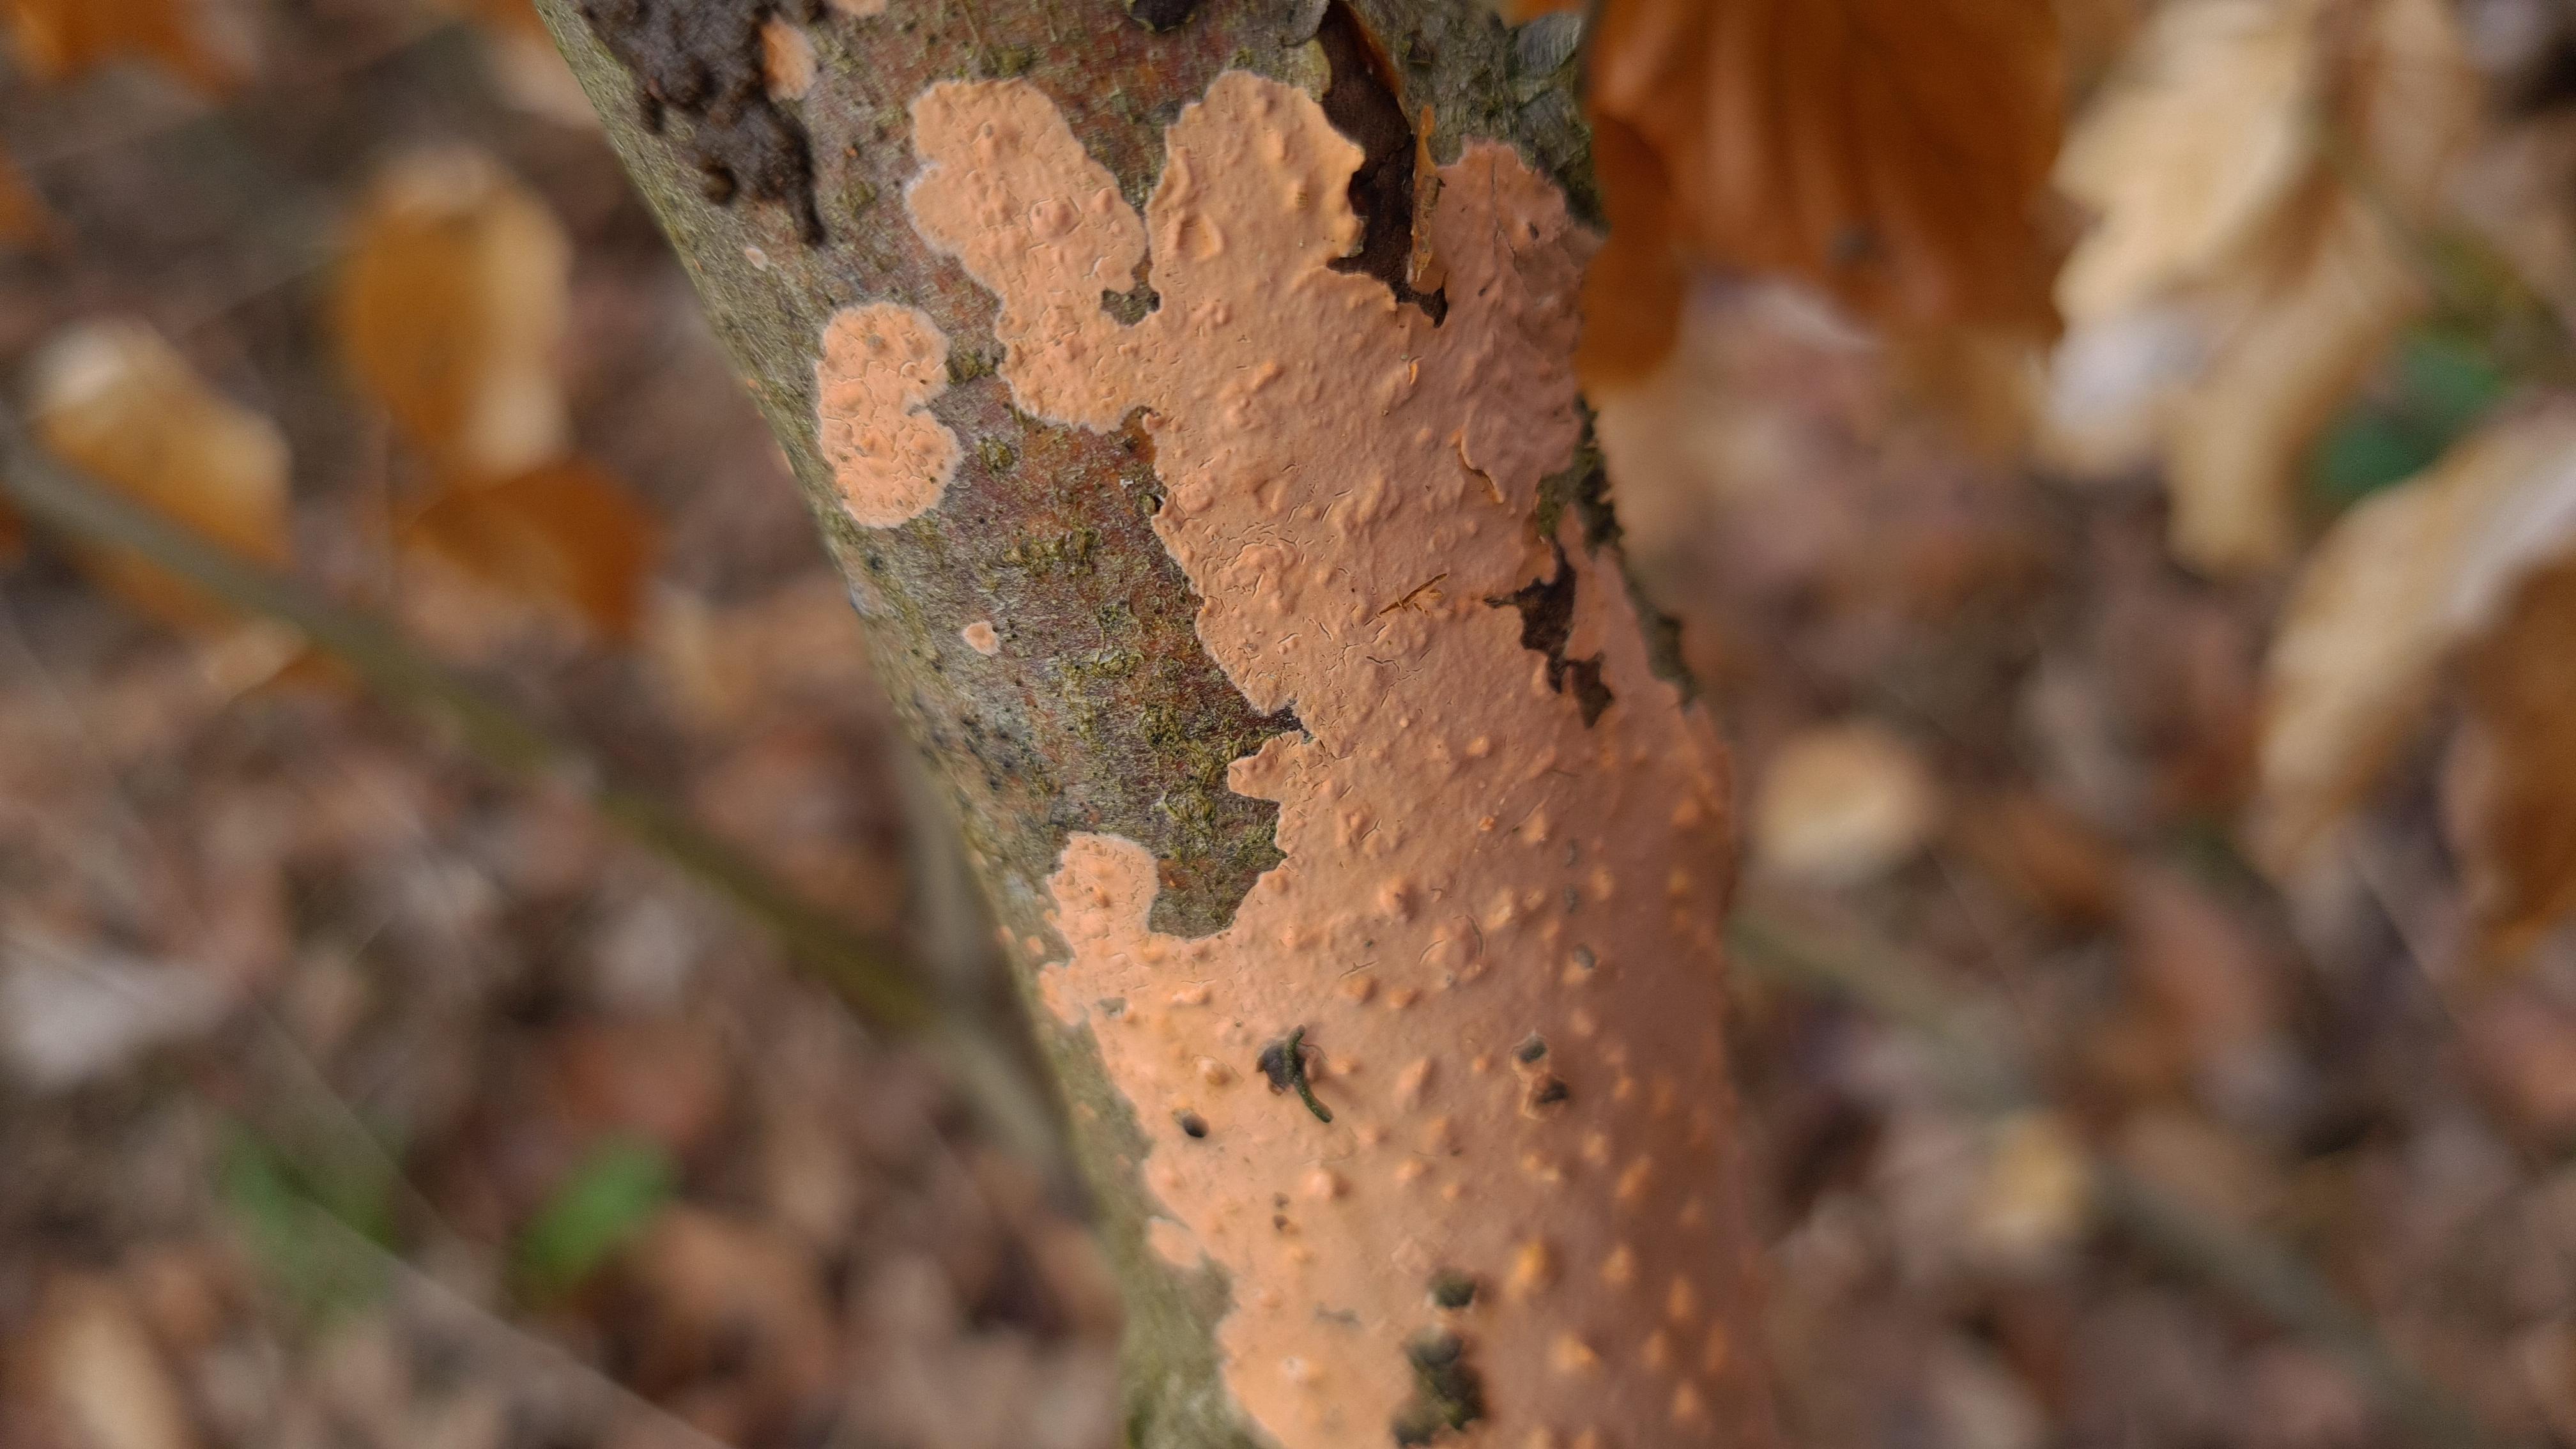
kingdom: Fungi
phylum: Basidiomycota
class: Agaricomycetes
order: Russulales
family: Peniophoraceae
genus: Peniophora
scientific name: Peniophora incarnata
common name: laksefarvet voksskind
